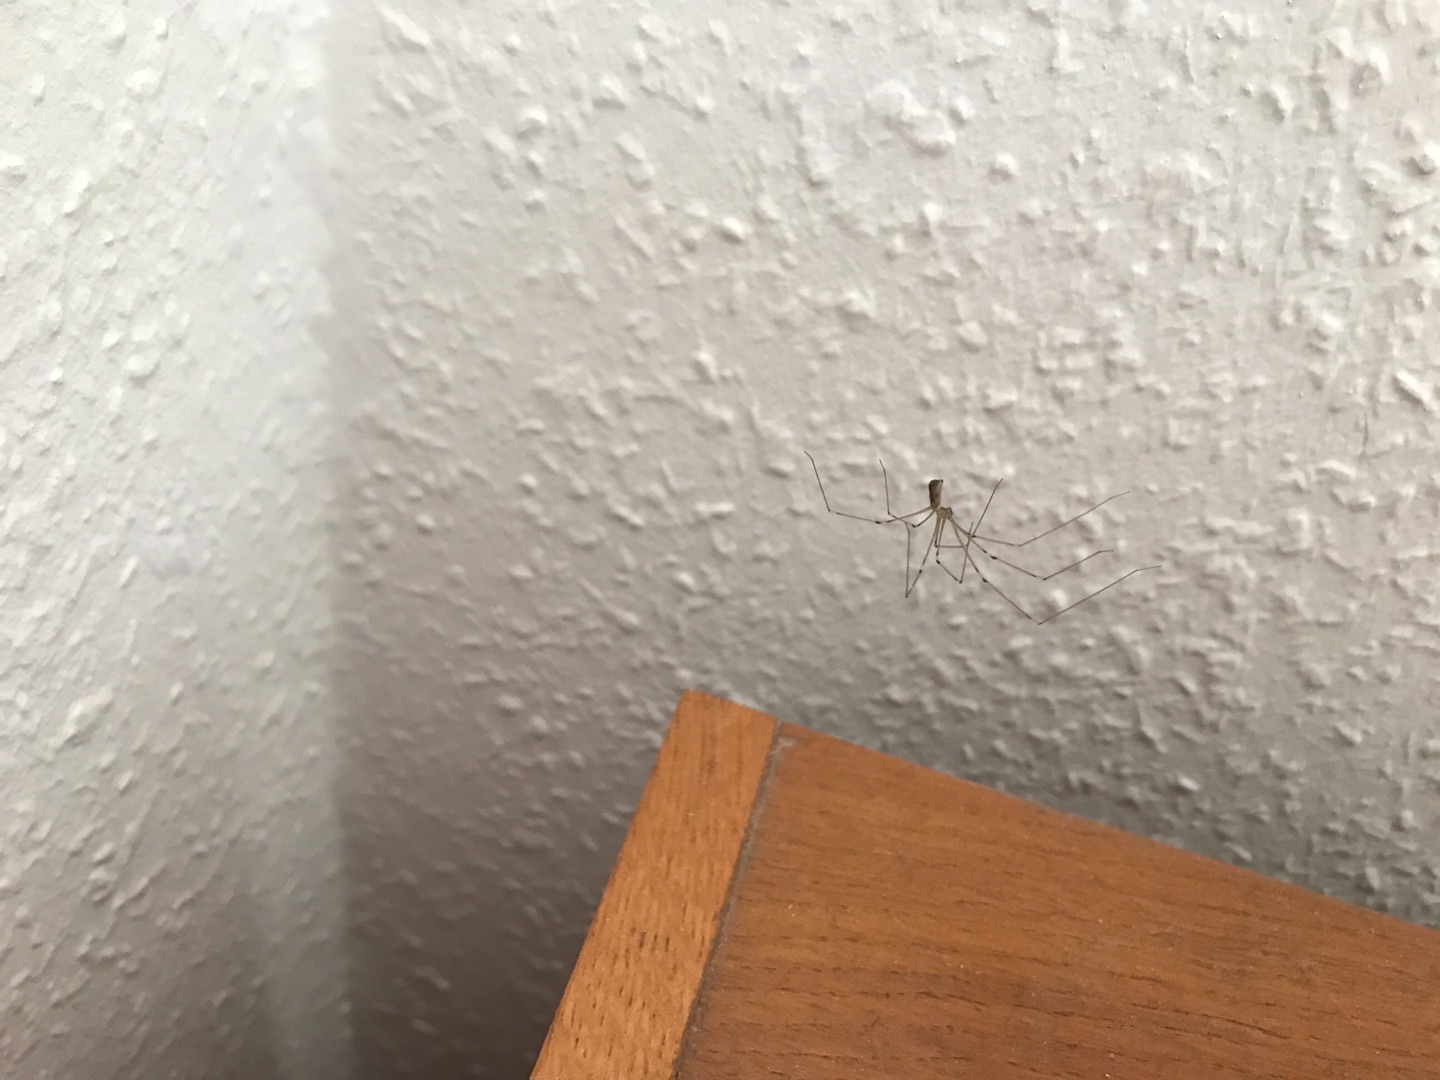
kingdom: Animalia
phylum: Arthropoda
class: Arachnida
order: Araneae
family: Pholcidae
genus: Pholcus
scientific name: Pholcus phalangioides
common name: Mejeredderkop
